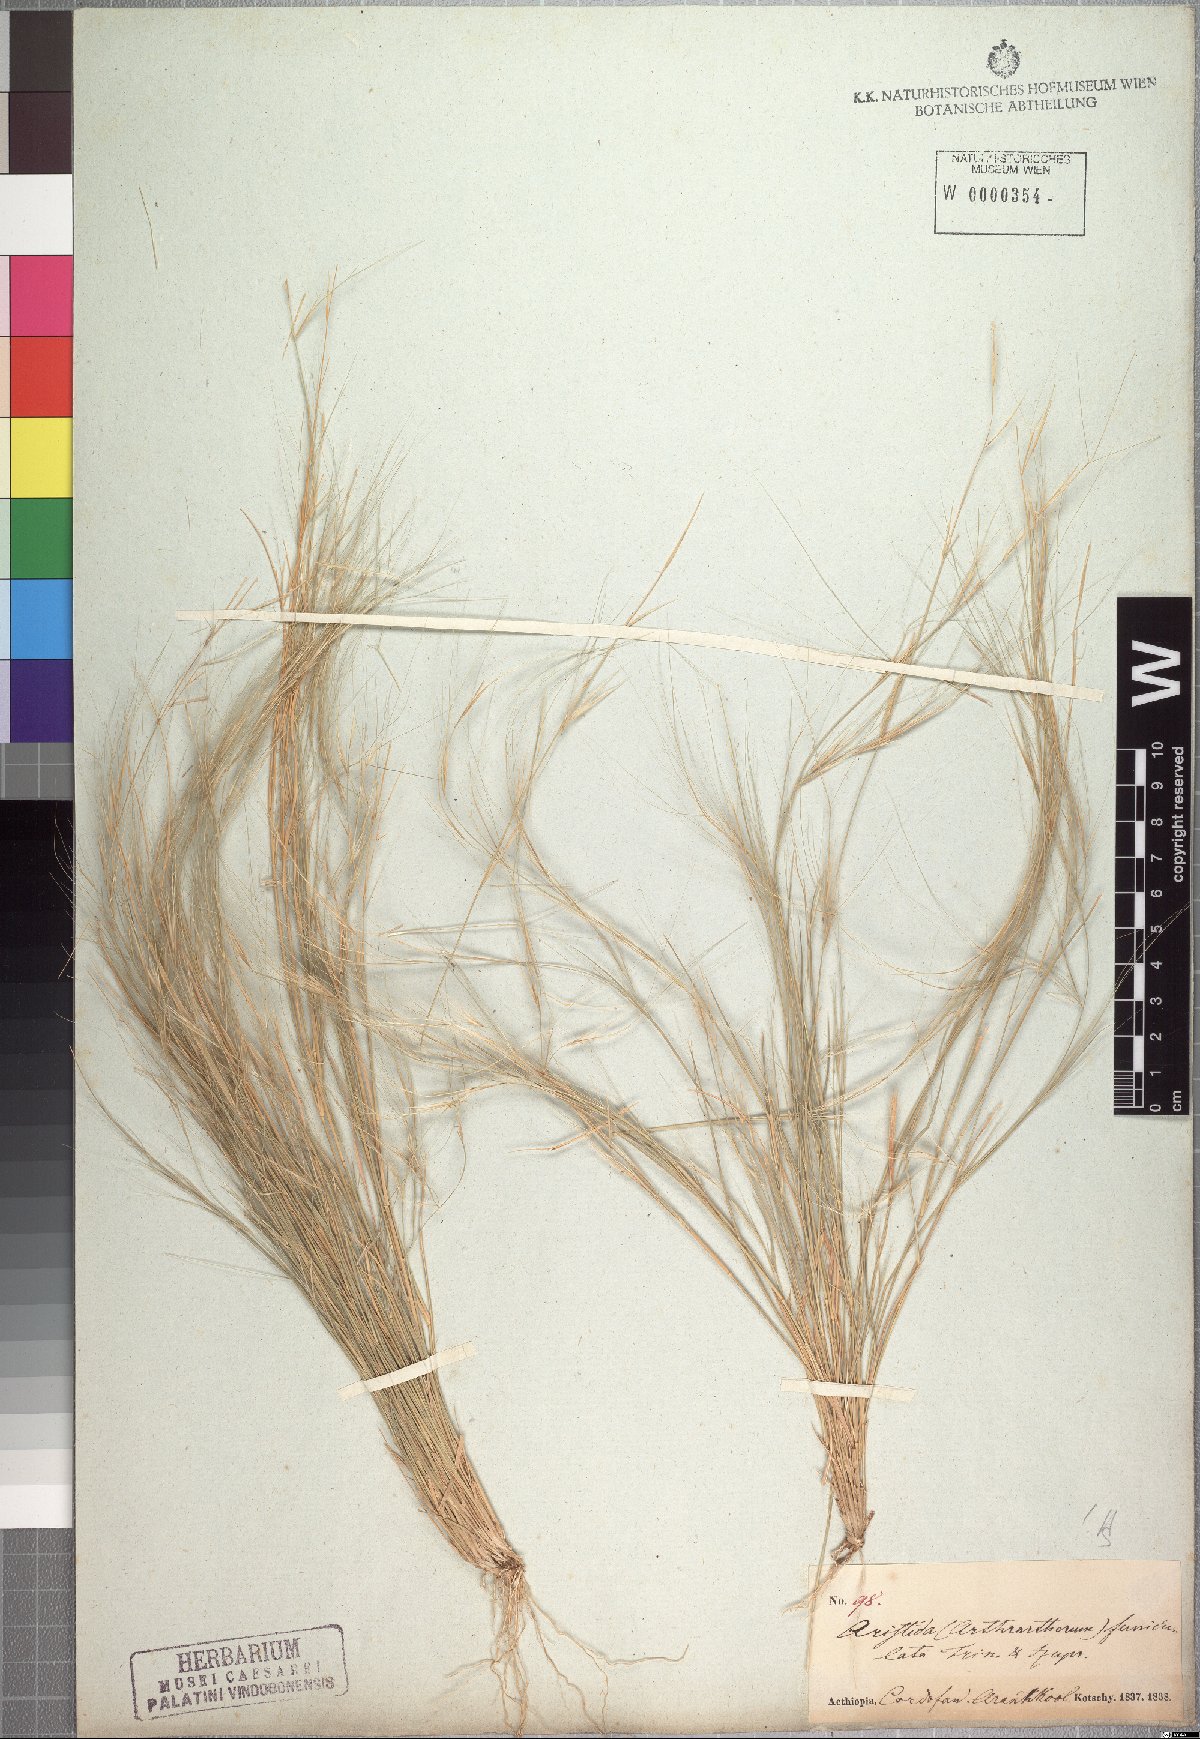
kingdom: Plantae
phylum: Tracheophyta
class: Liliopsida
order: Poales
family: Poaceae
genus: Aristida
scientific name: Aristida funiculata
